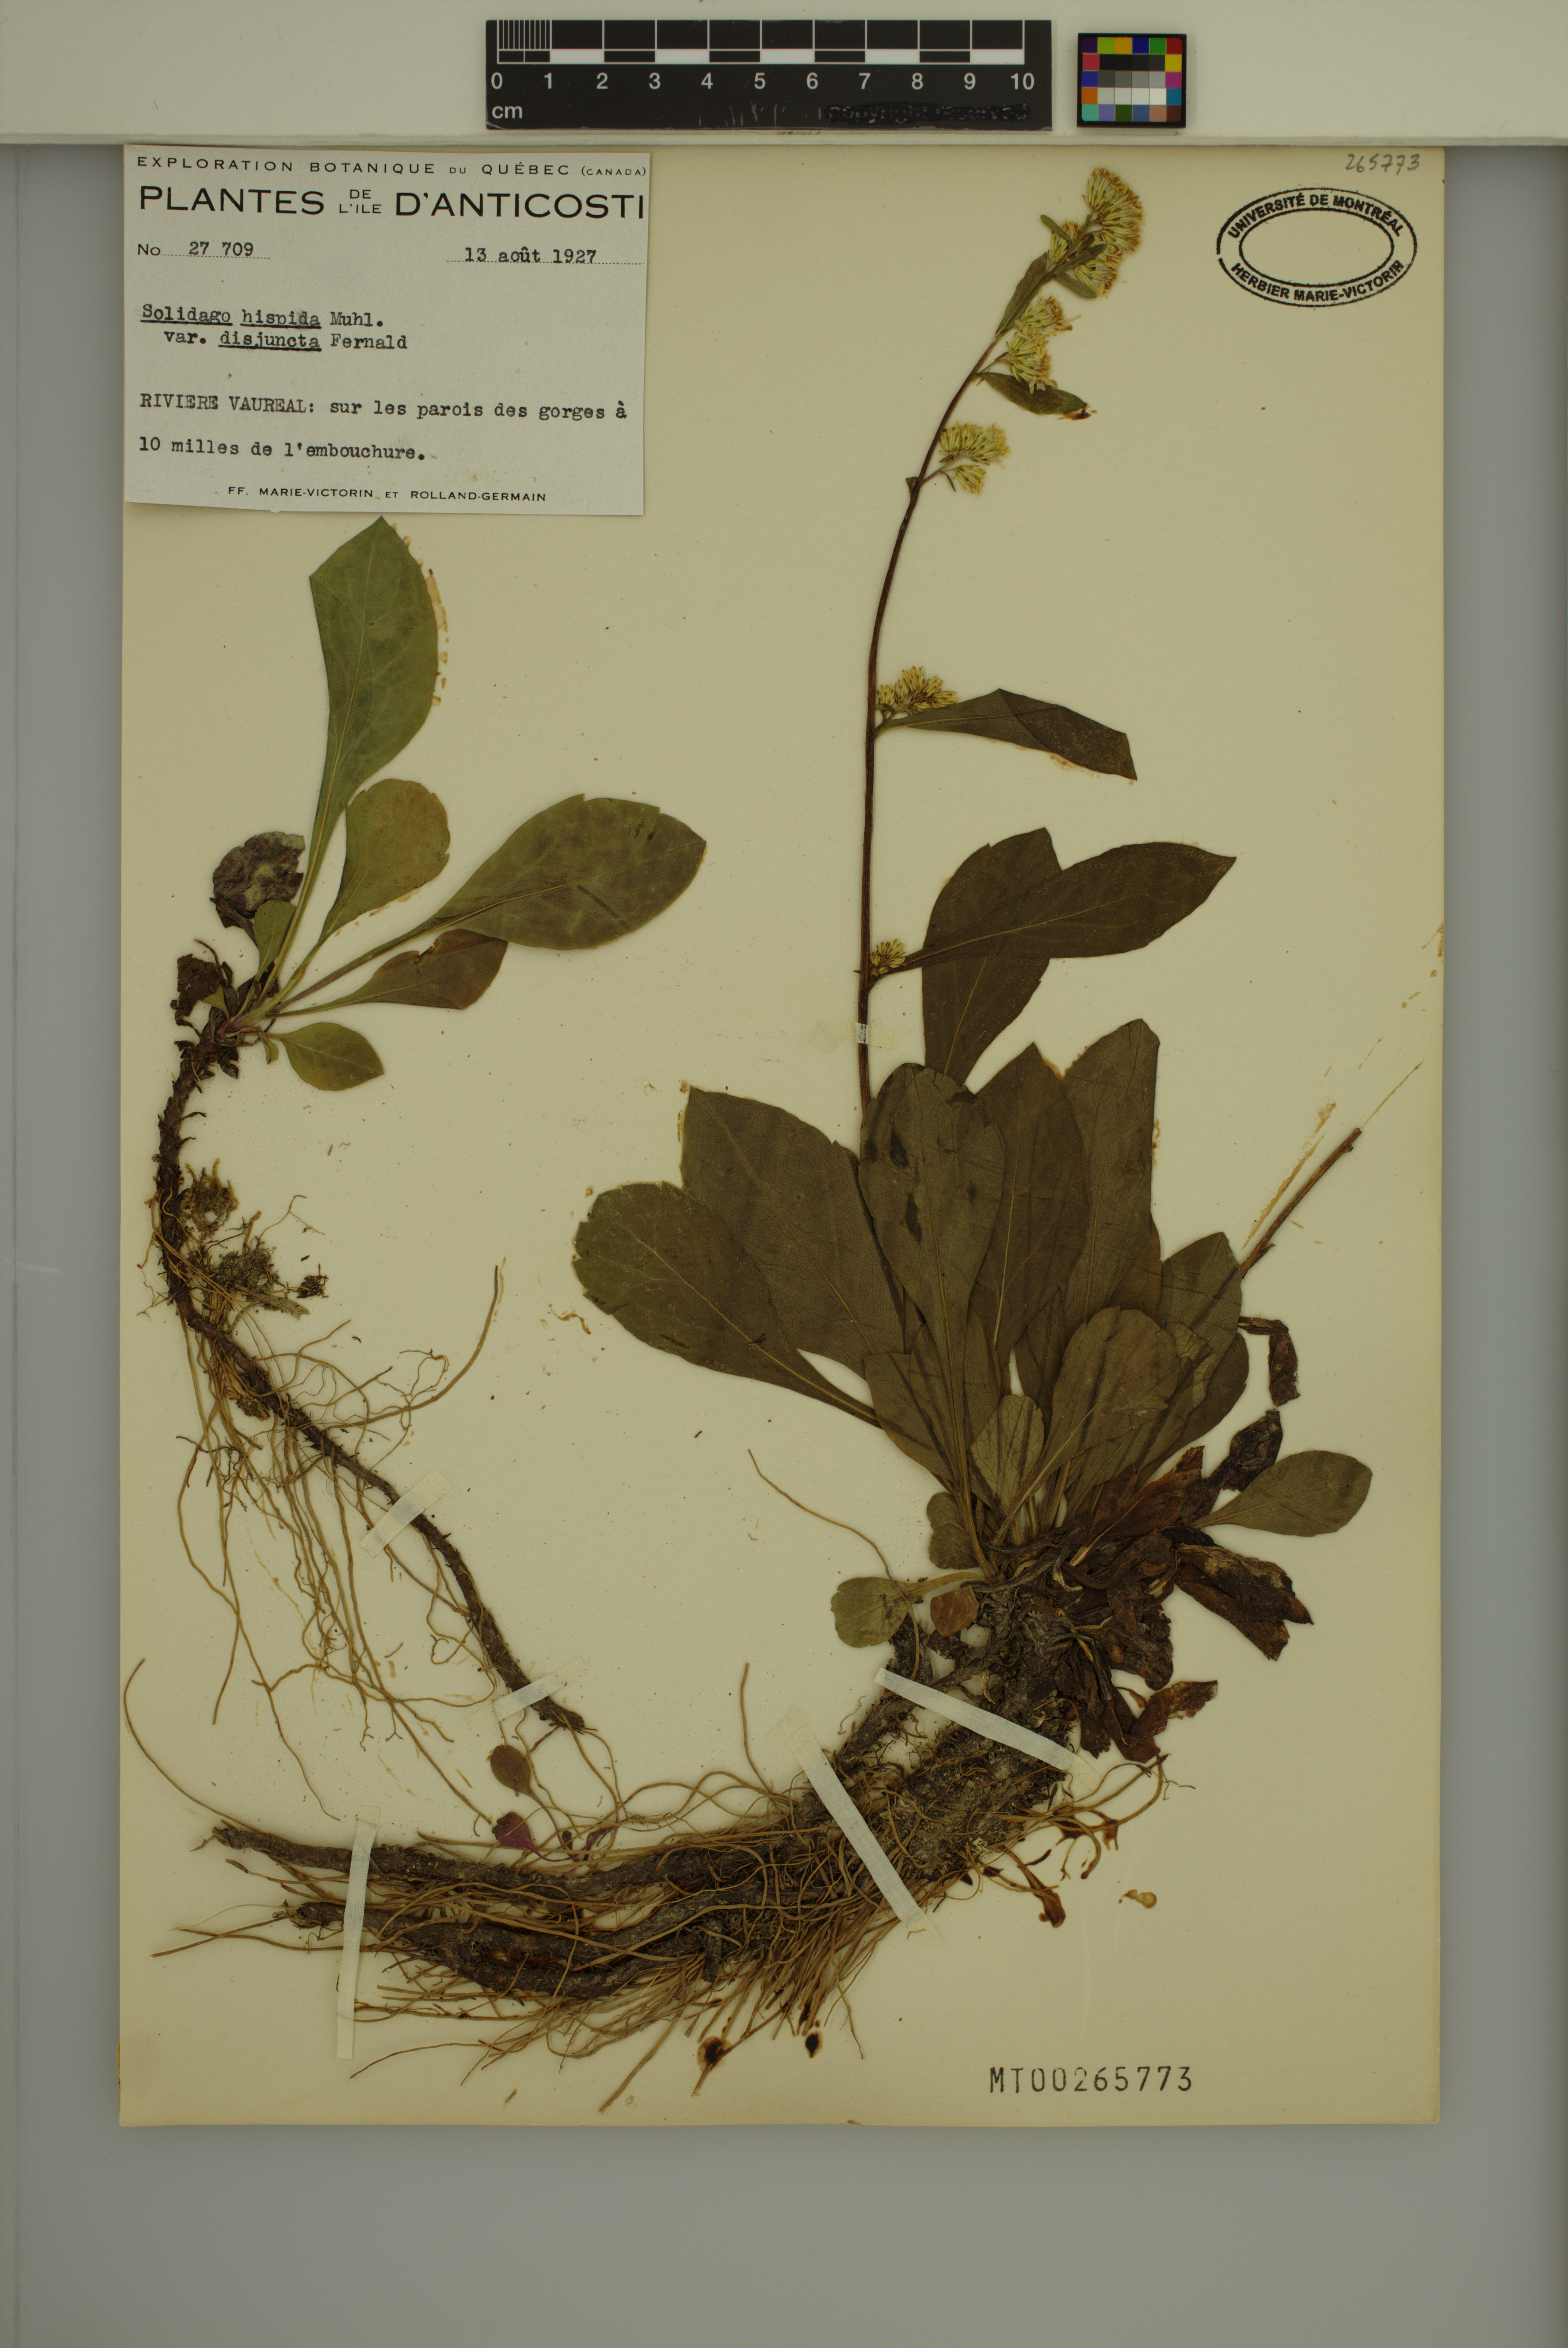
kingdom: Plantae
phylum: Tracheophyta
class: Magnoliopsida
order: Asterales
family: Asteraceae
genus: Solidago
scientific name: Solidago hispida
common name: Hairy goldenrod
